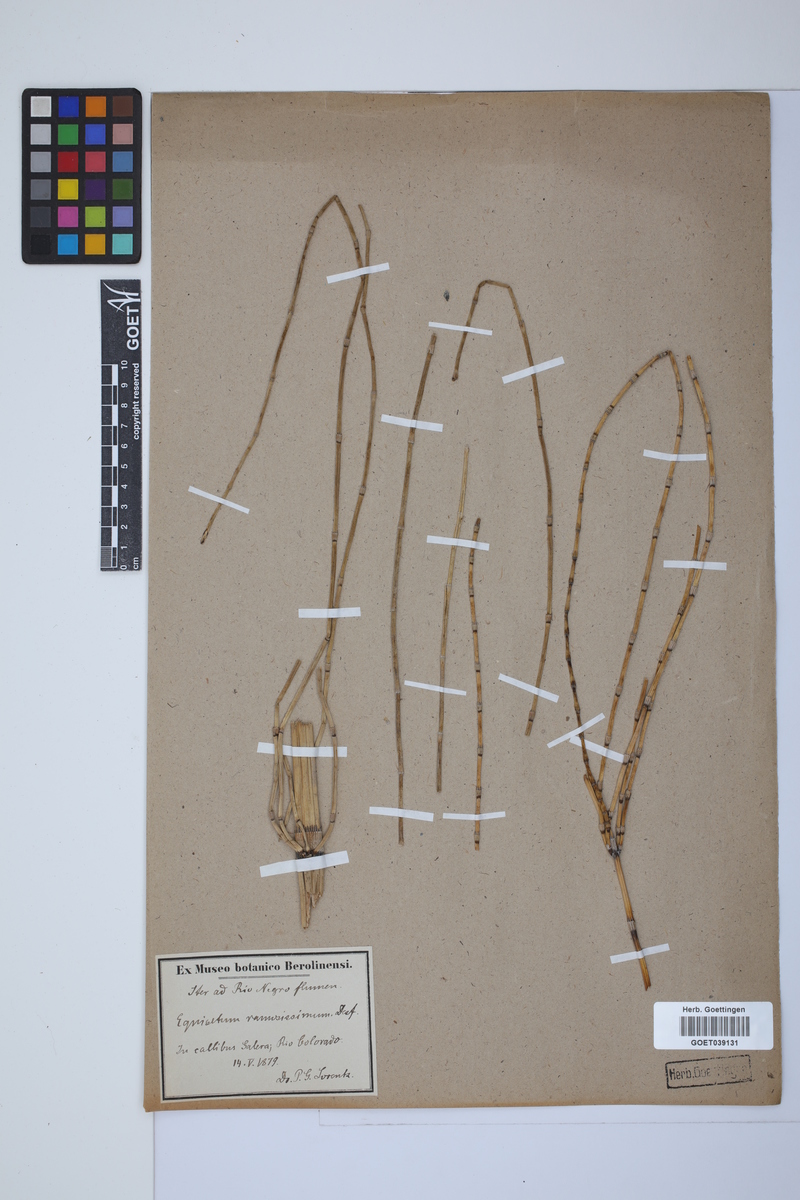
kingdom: Plantae
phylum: Tracheophyta
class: Polypodiopsida
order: Equisetales
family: Equisetaceae
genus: Equisetum
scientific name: Equisetum giganteum
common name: Giant horsetail
